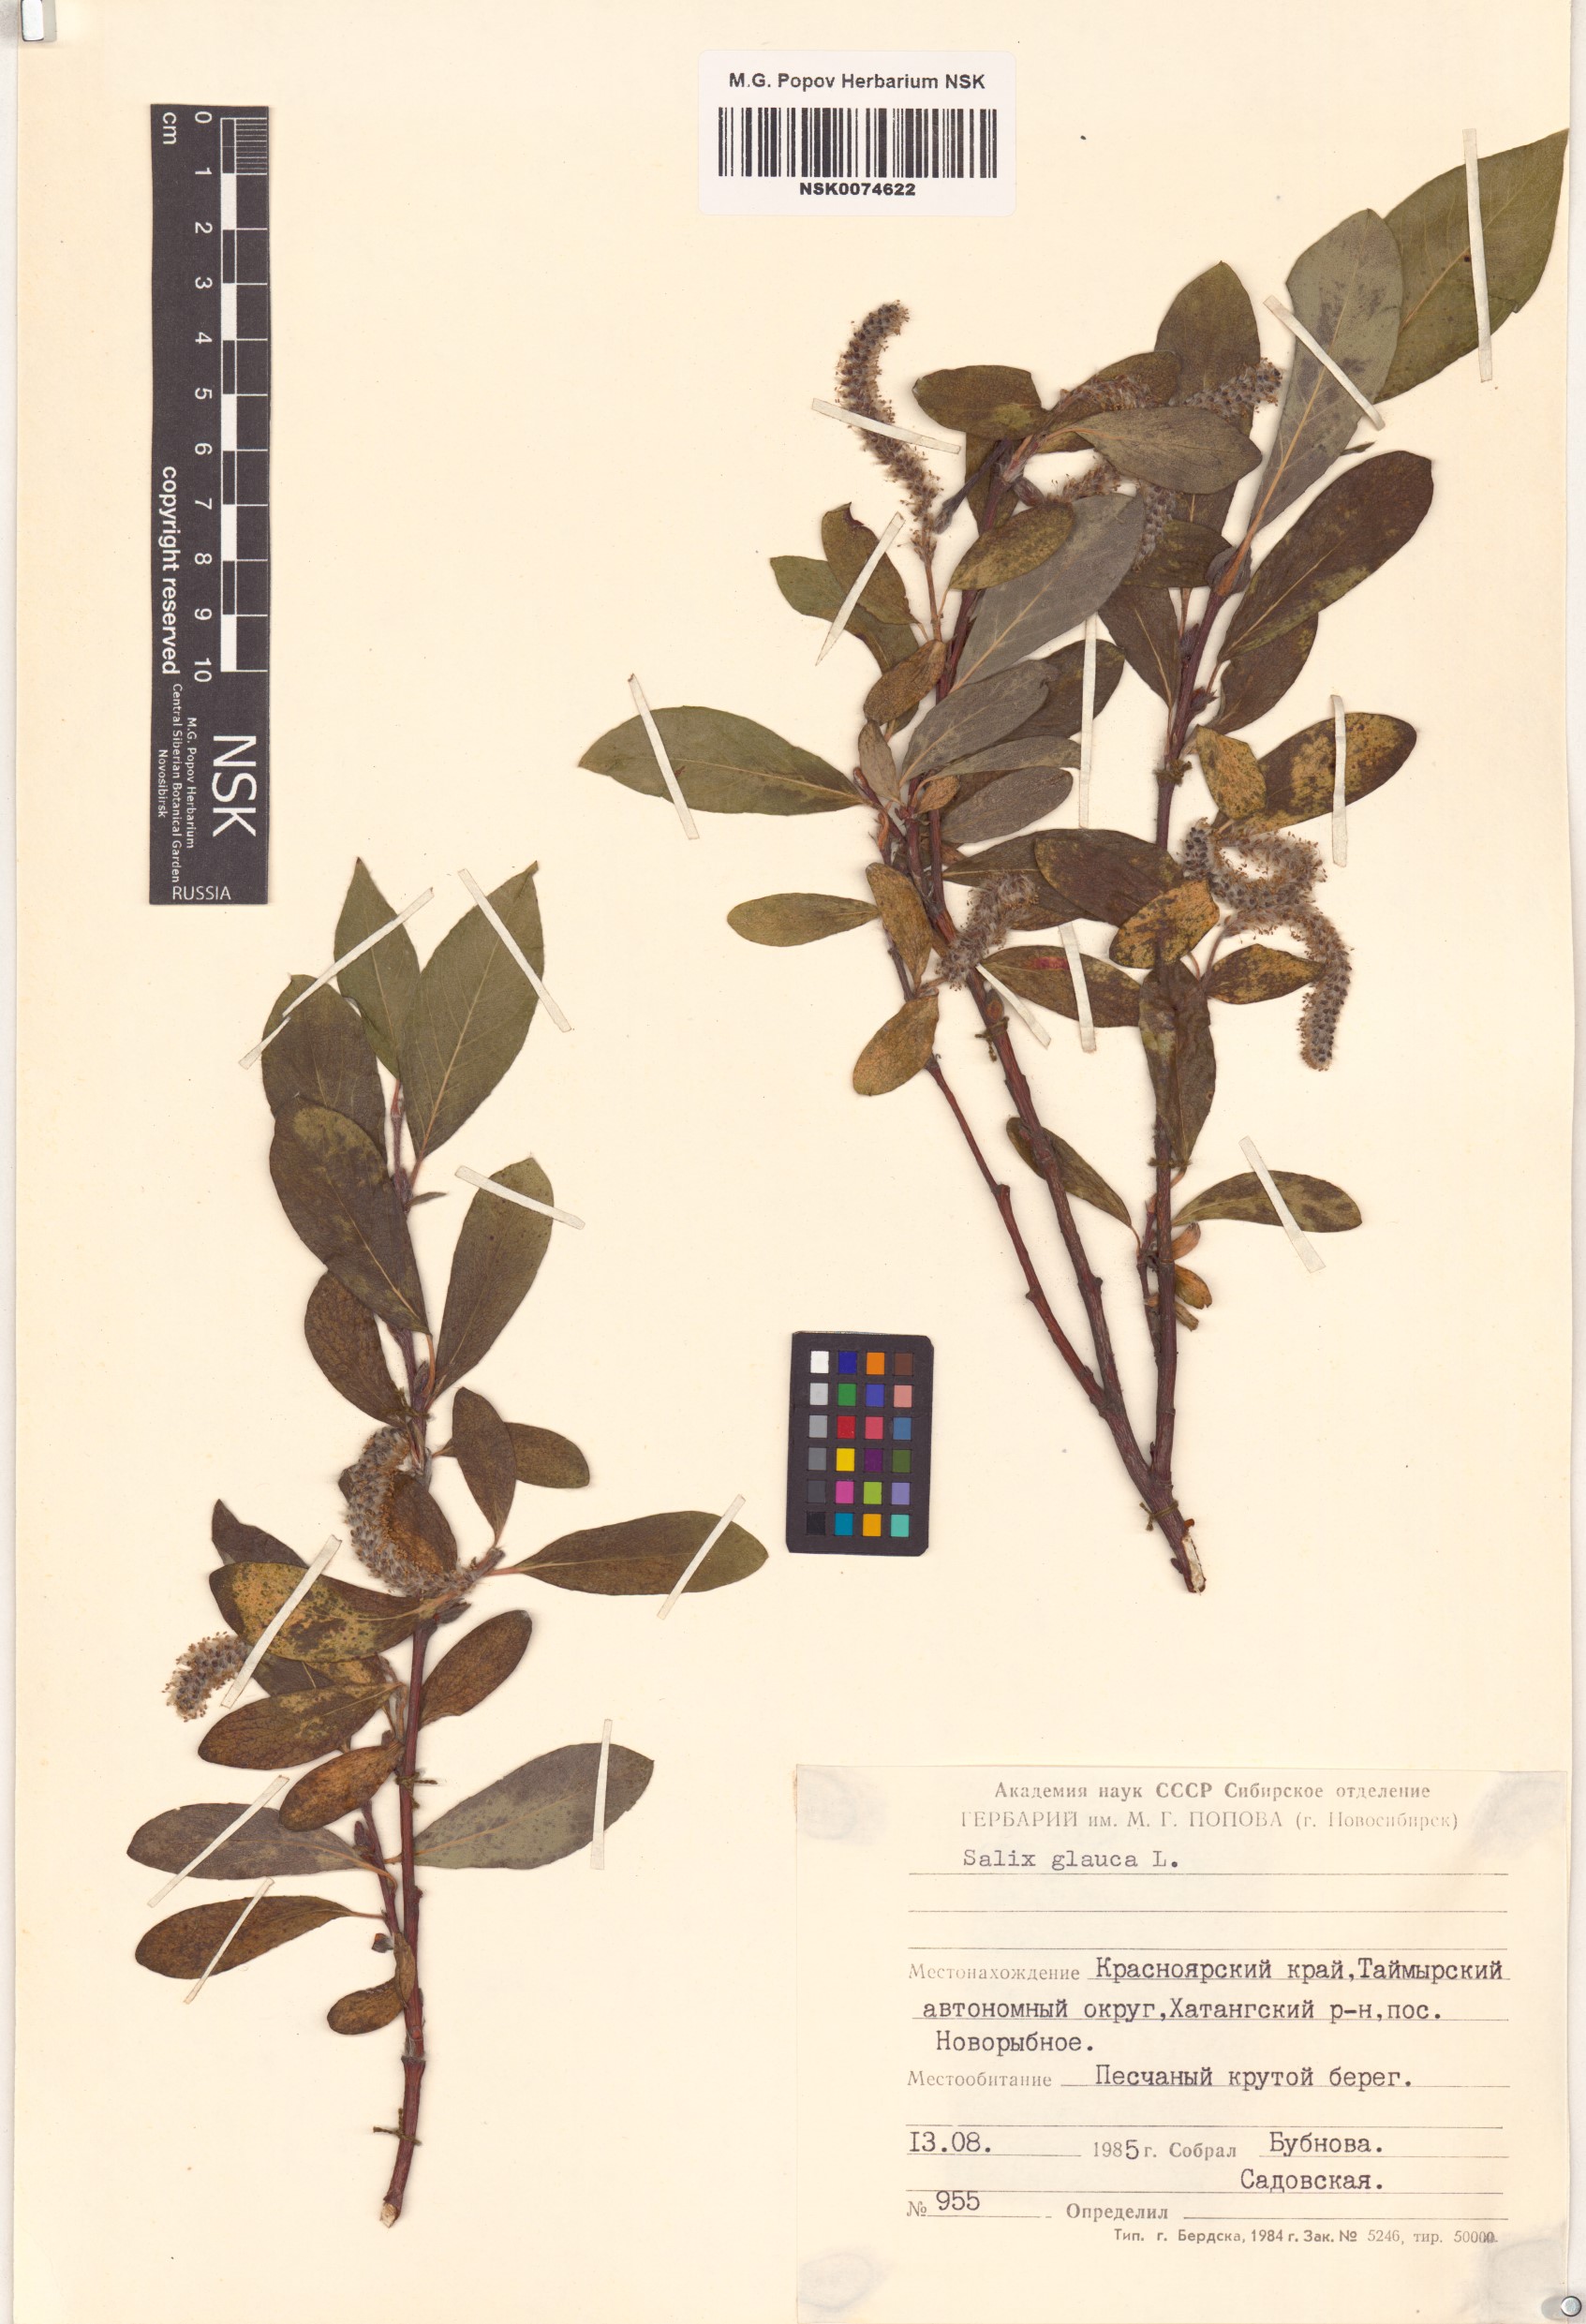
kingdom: Plantae
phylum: Tracheophyta
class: Magnoliopsida
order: Malpighiales
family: Salicaceae
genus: Salix
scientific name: Salix glauca
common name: Glaucous willow
